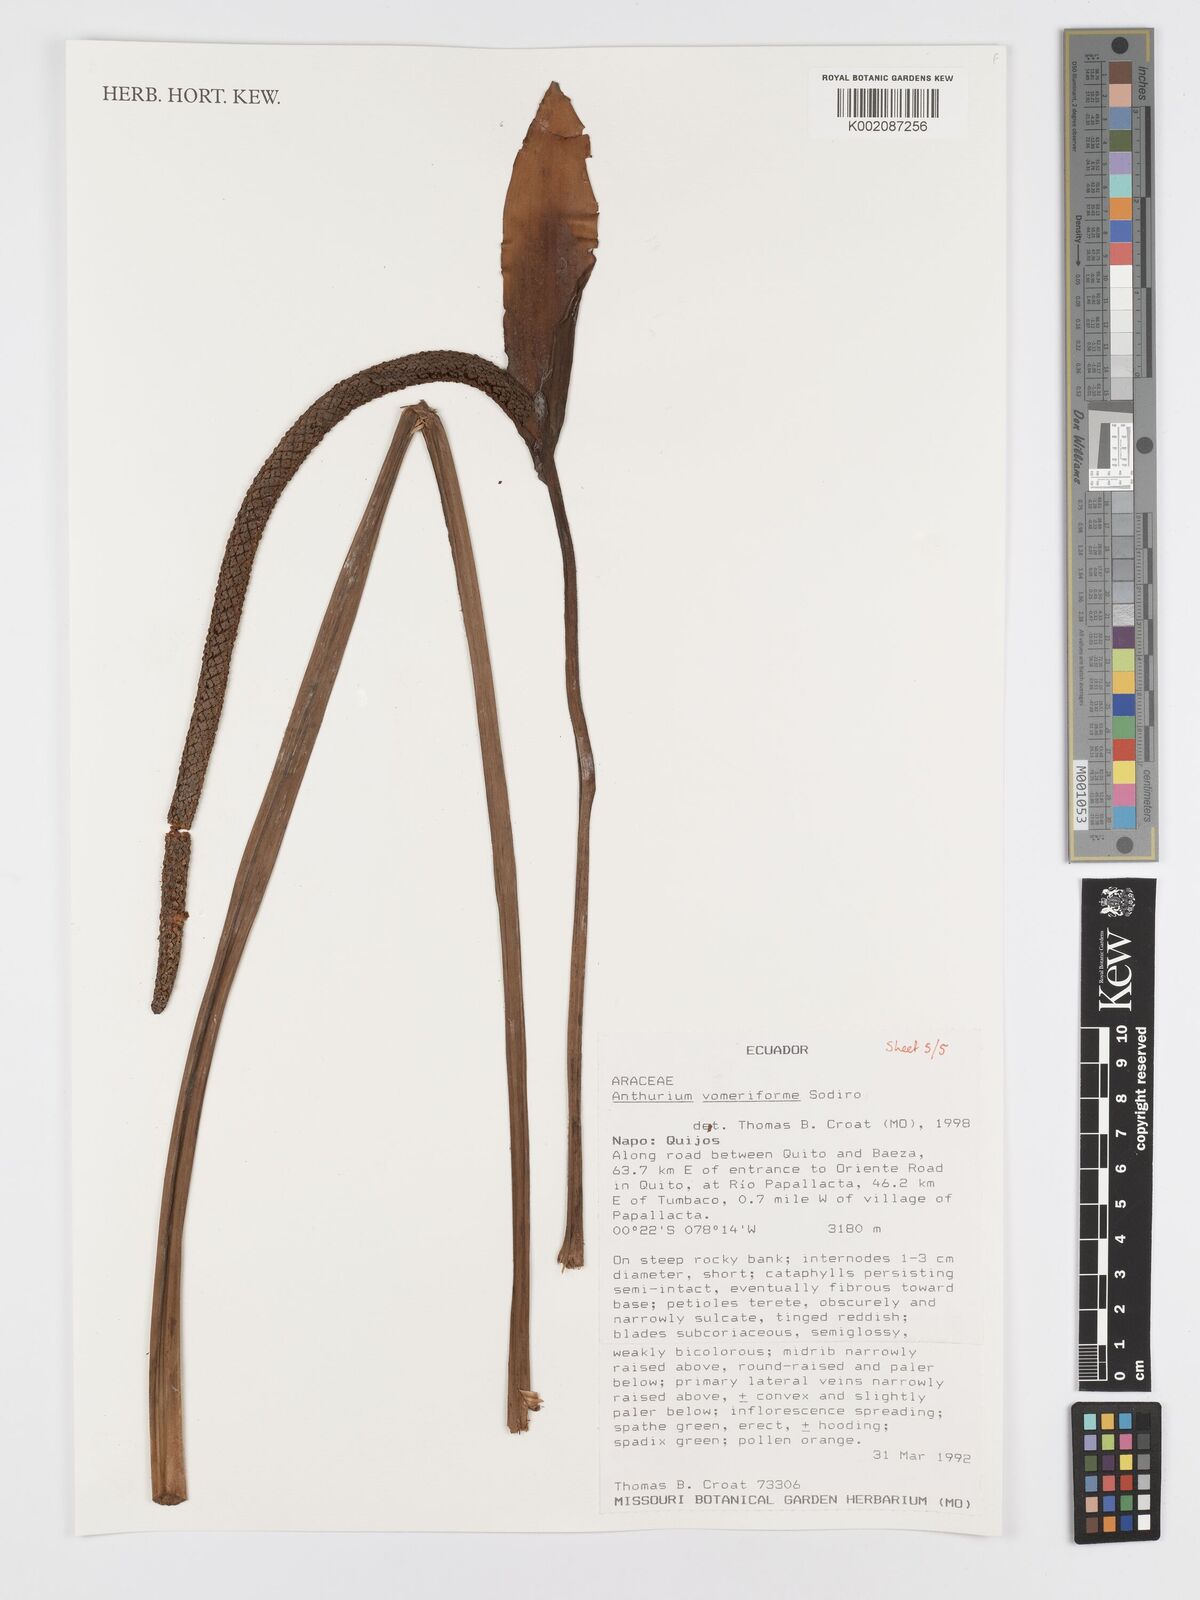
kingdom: Plantae
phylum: Tracheophyta
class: Liliopsida
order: Alismatales
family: Araceae
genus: Anthurium
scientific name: Anthurium vomeriforme
